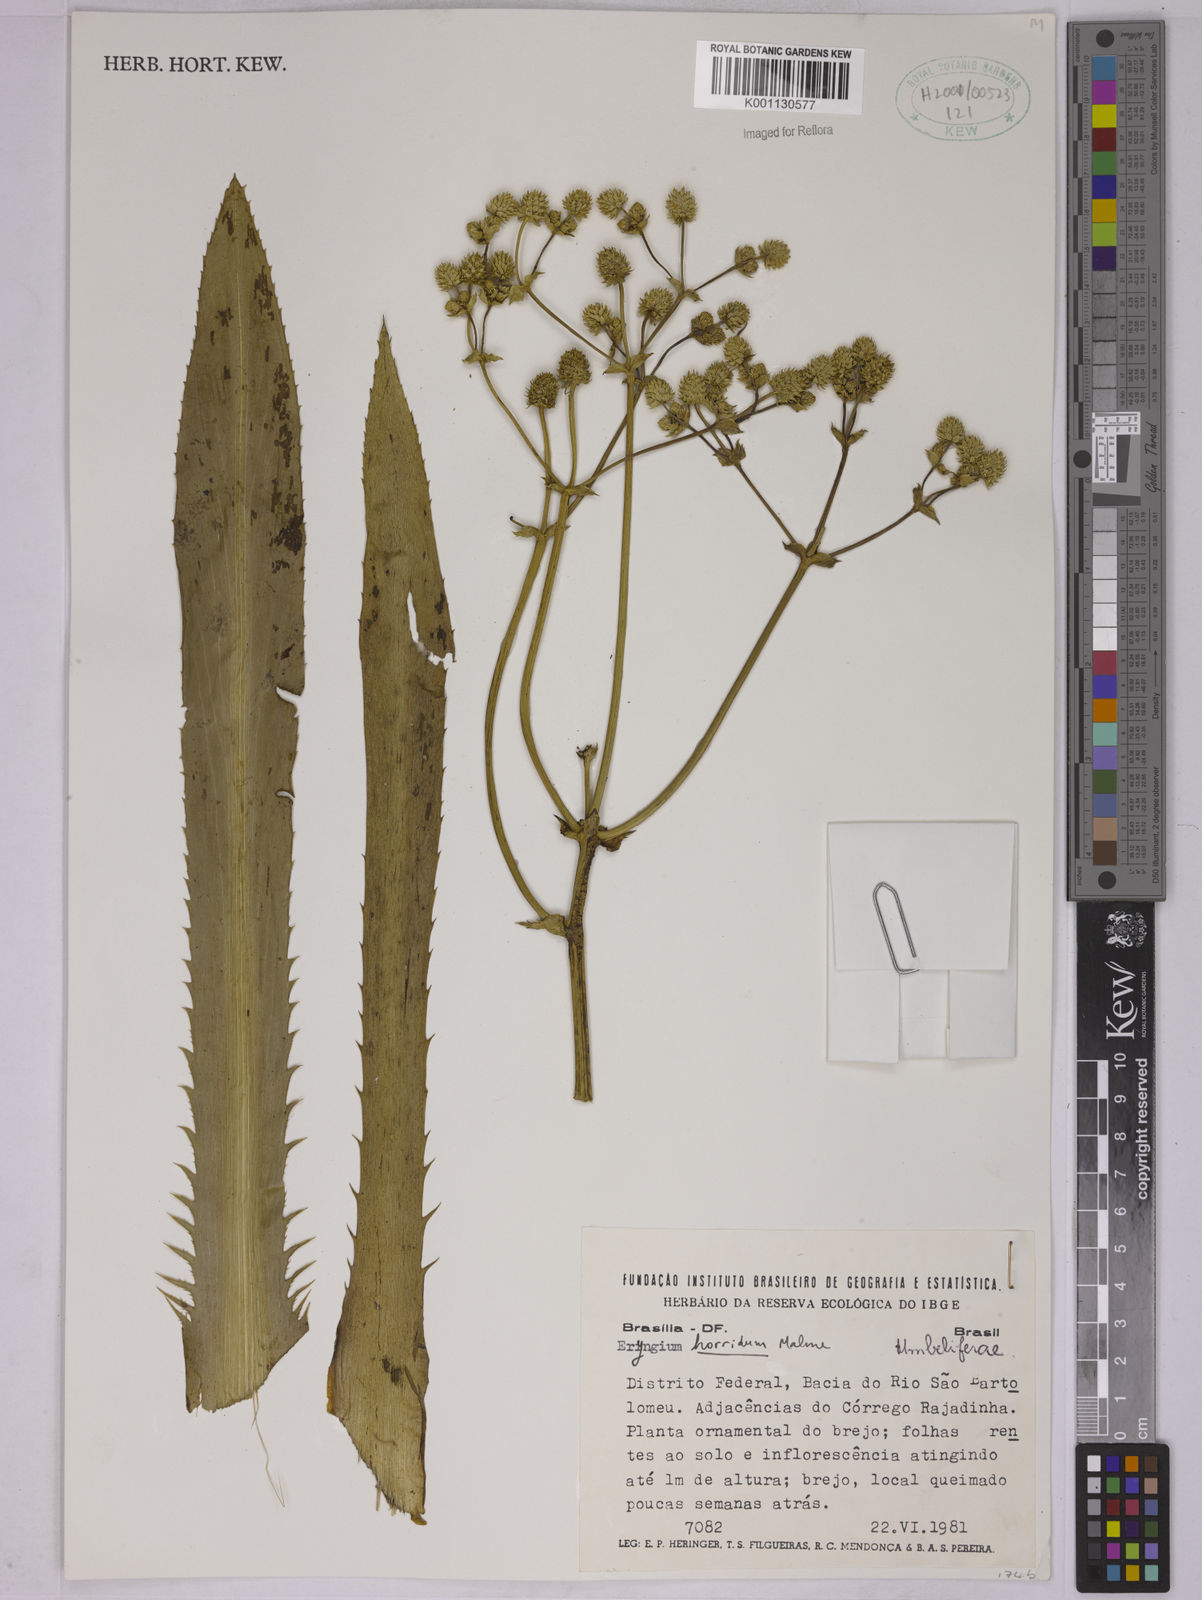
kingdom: Plantae
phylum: Tracheophyta
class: Magnoliopsida
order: Apiales
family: Apiaceae
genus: Eryngium
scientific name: Eryngium horridum
